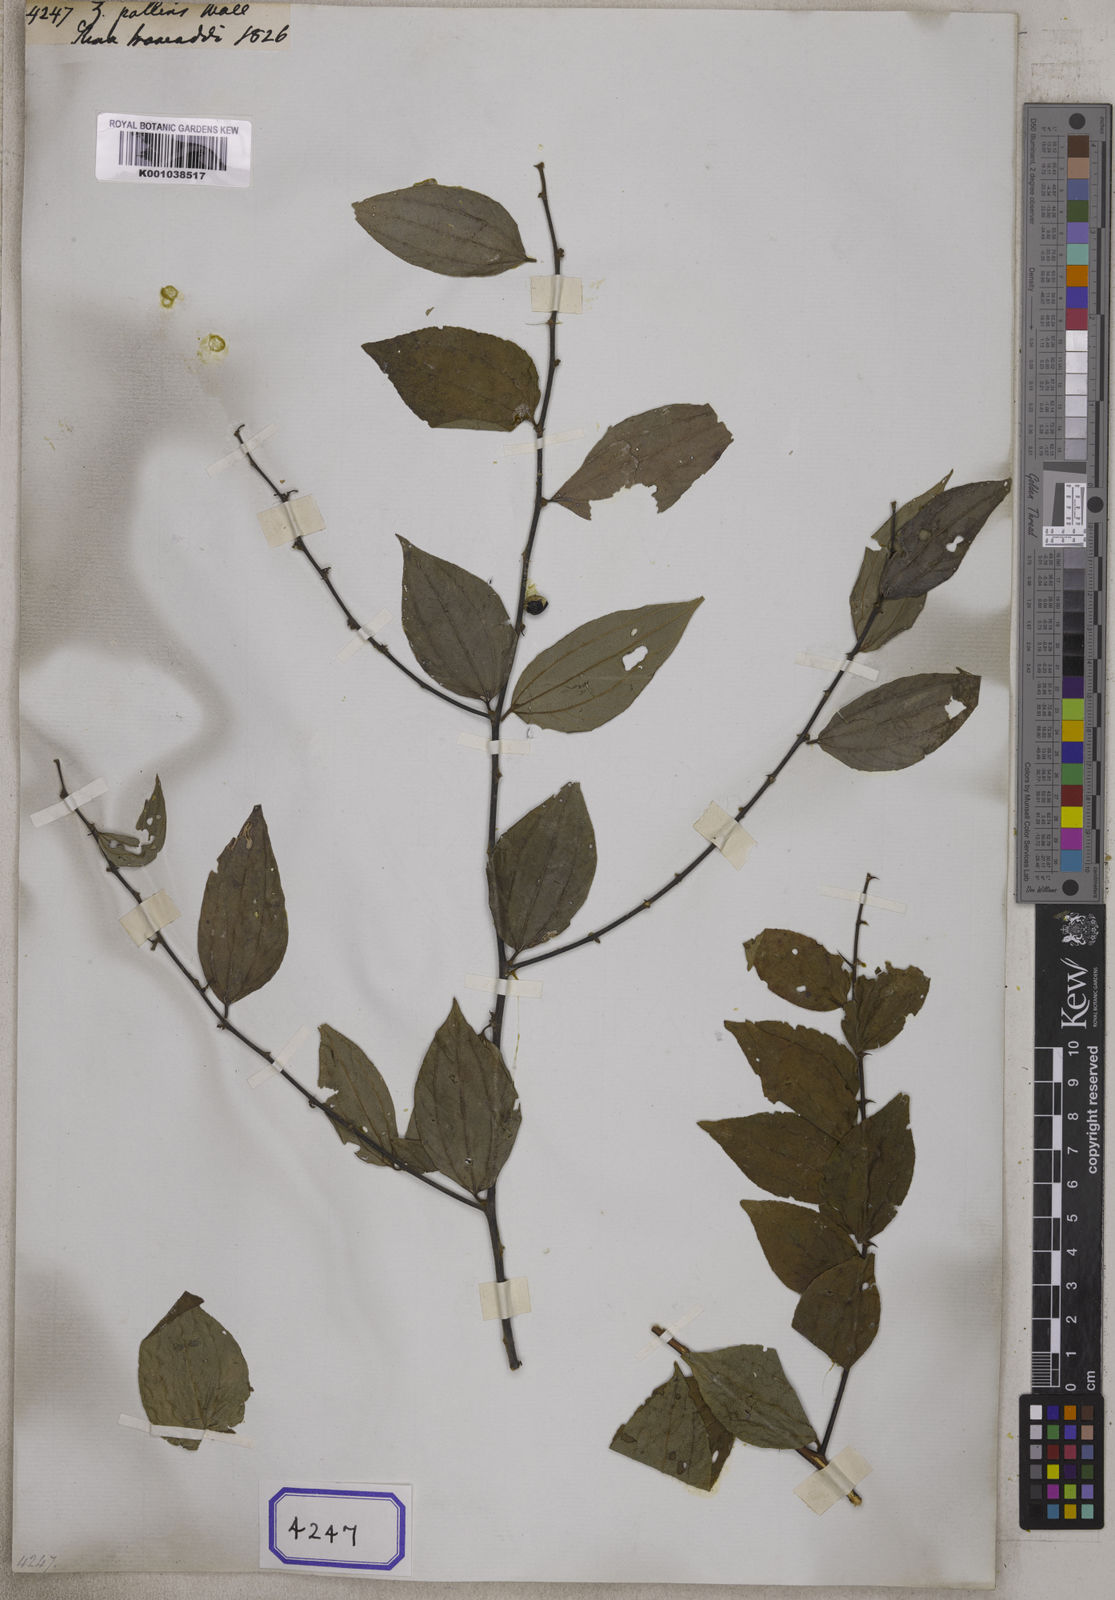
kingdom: Plantae
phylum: Tracheophyta
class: Magnoliopsida
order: Rosales
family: Rhamnaceae
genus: Ziziphus
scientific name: Ziziphus oenopolia
